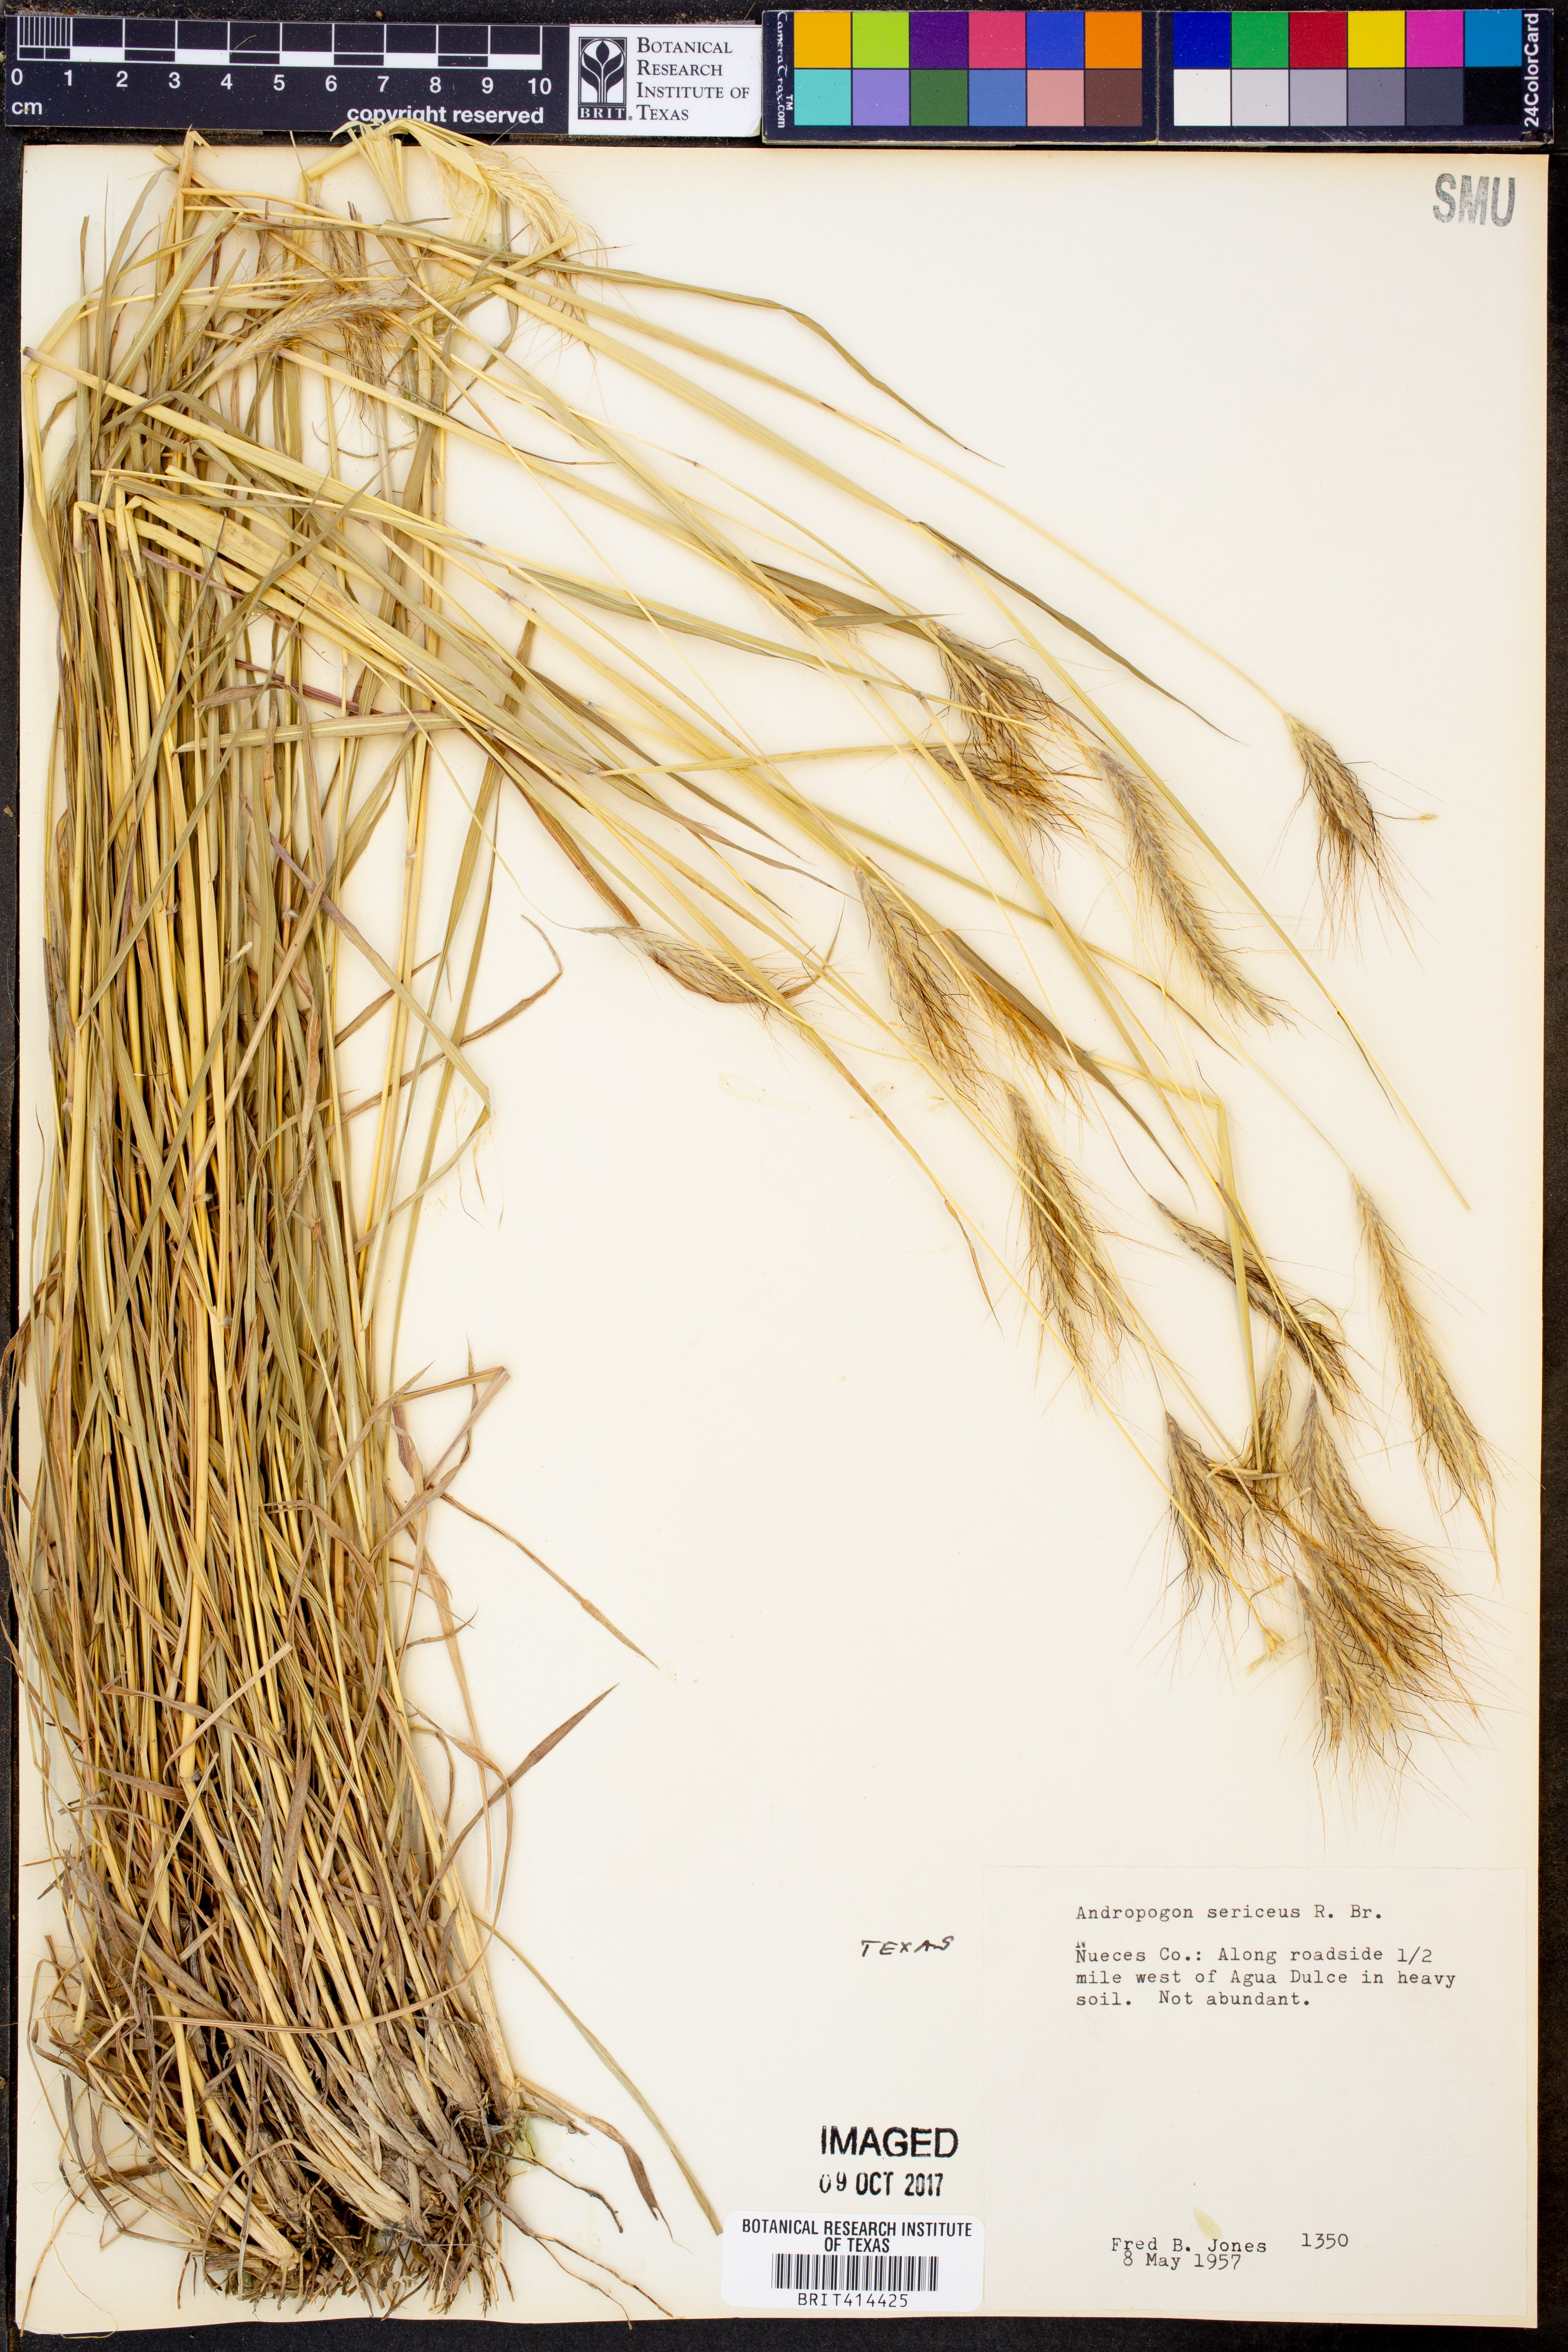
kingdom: Plantae
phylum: Tracheophyta
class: Liliopsida
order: Poales
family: Poaceae
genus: Dichanthium
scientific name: Dichanthium sericeum
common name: Silky bluestem
